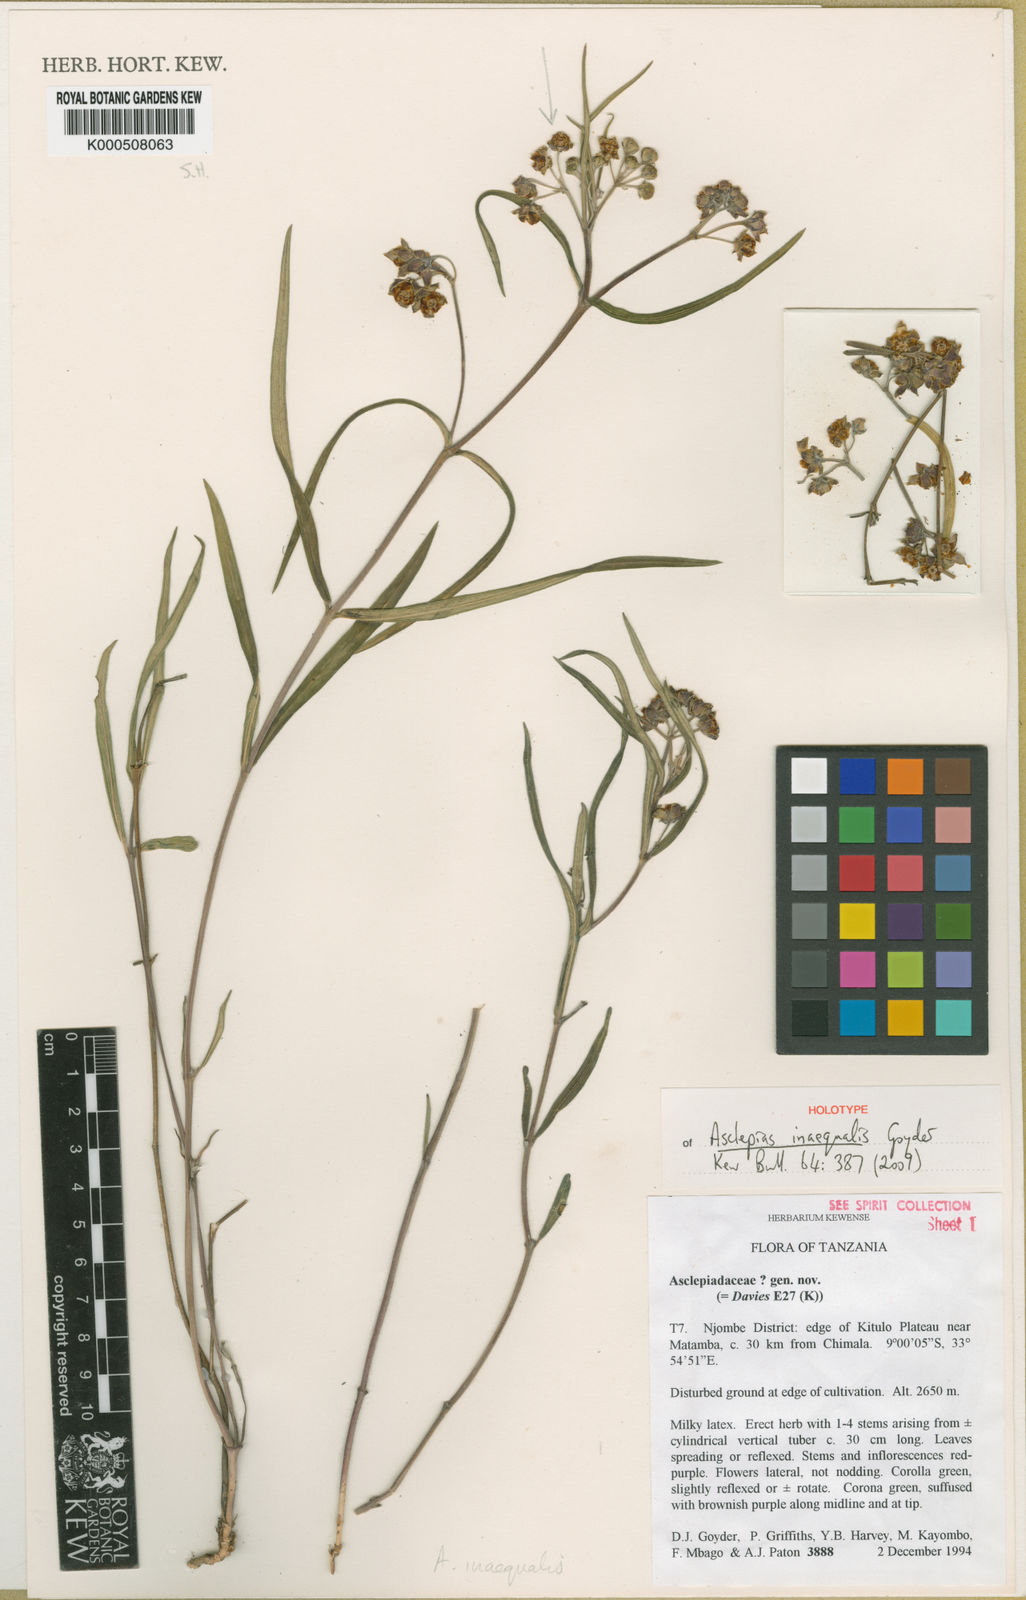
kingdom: Plantae
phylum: Tracheophyta
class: Magnoliopsida
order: Gentianales
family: Apocynaceae
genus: Asclepias
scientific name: Asclepias inaequalis
